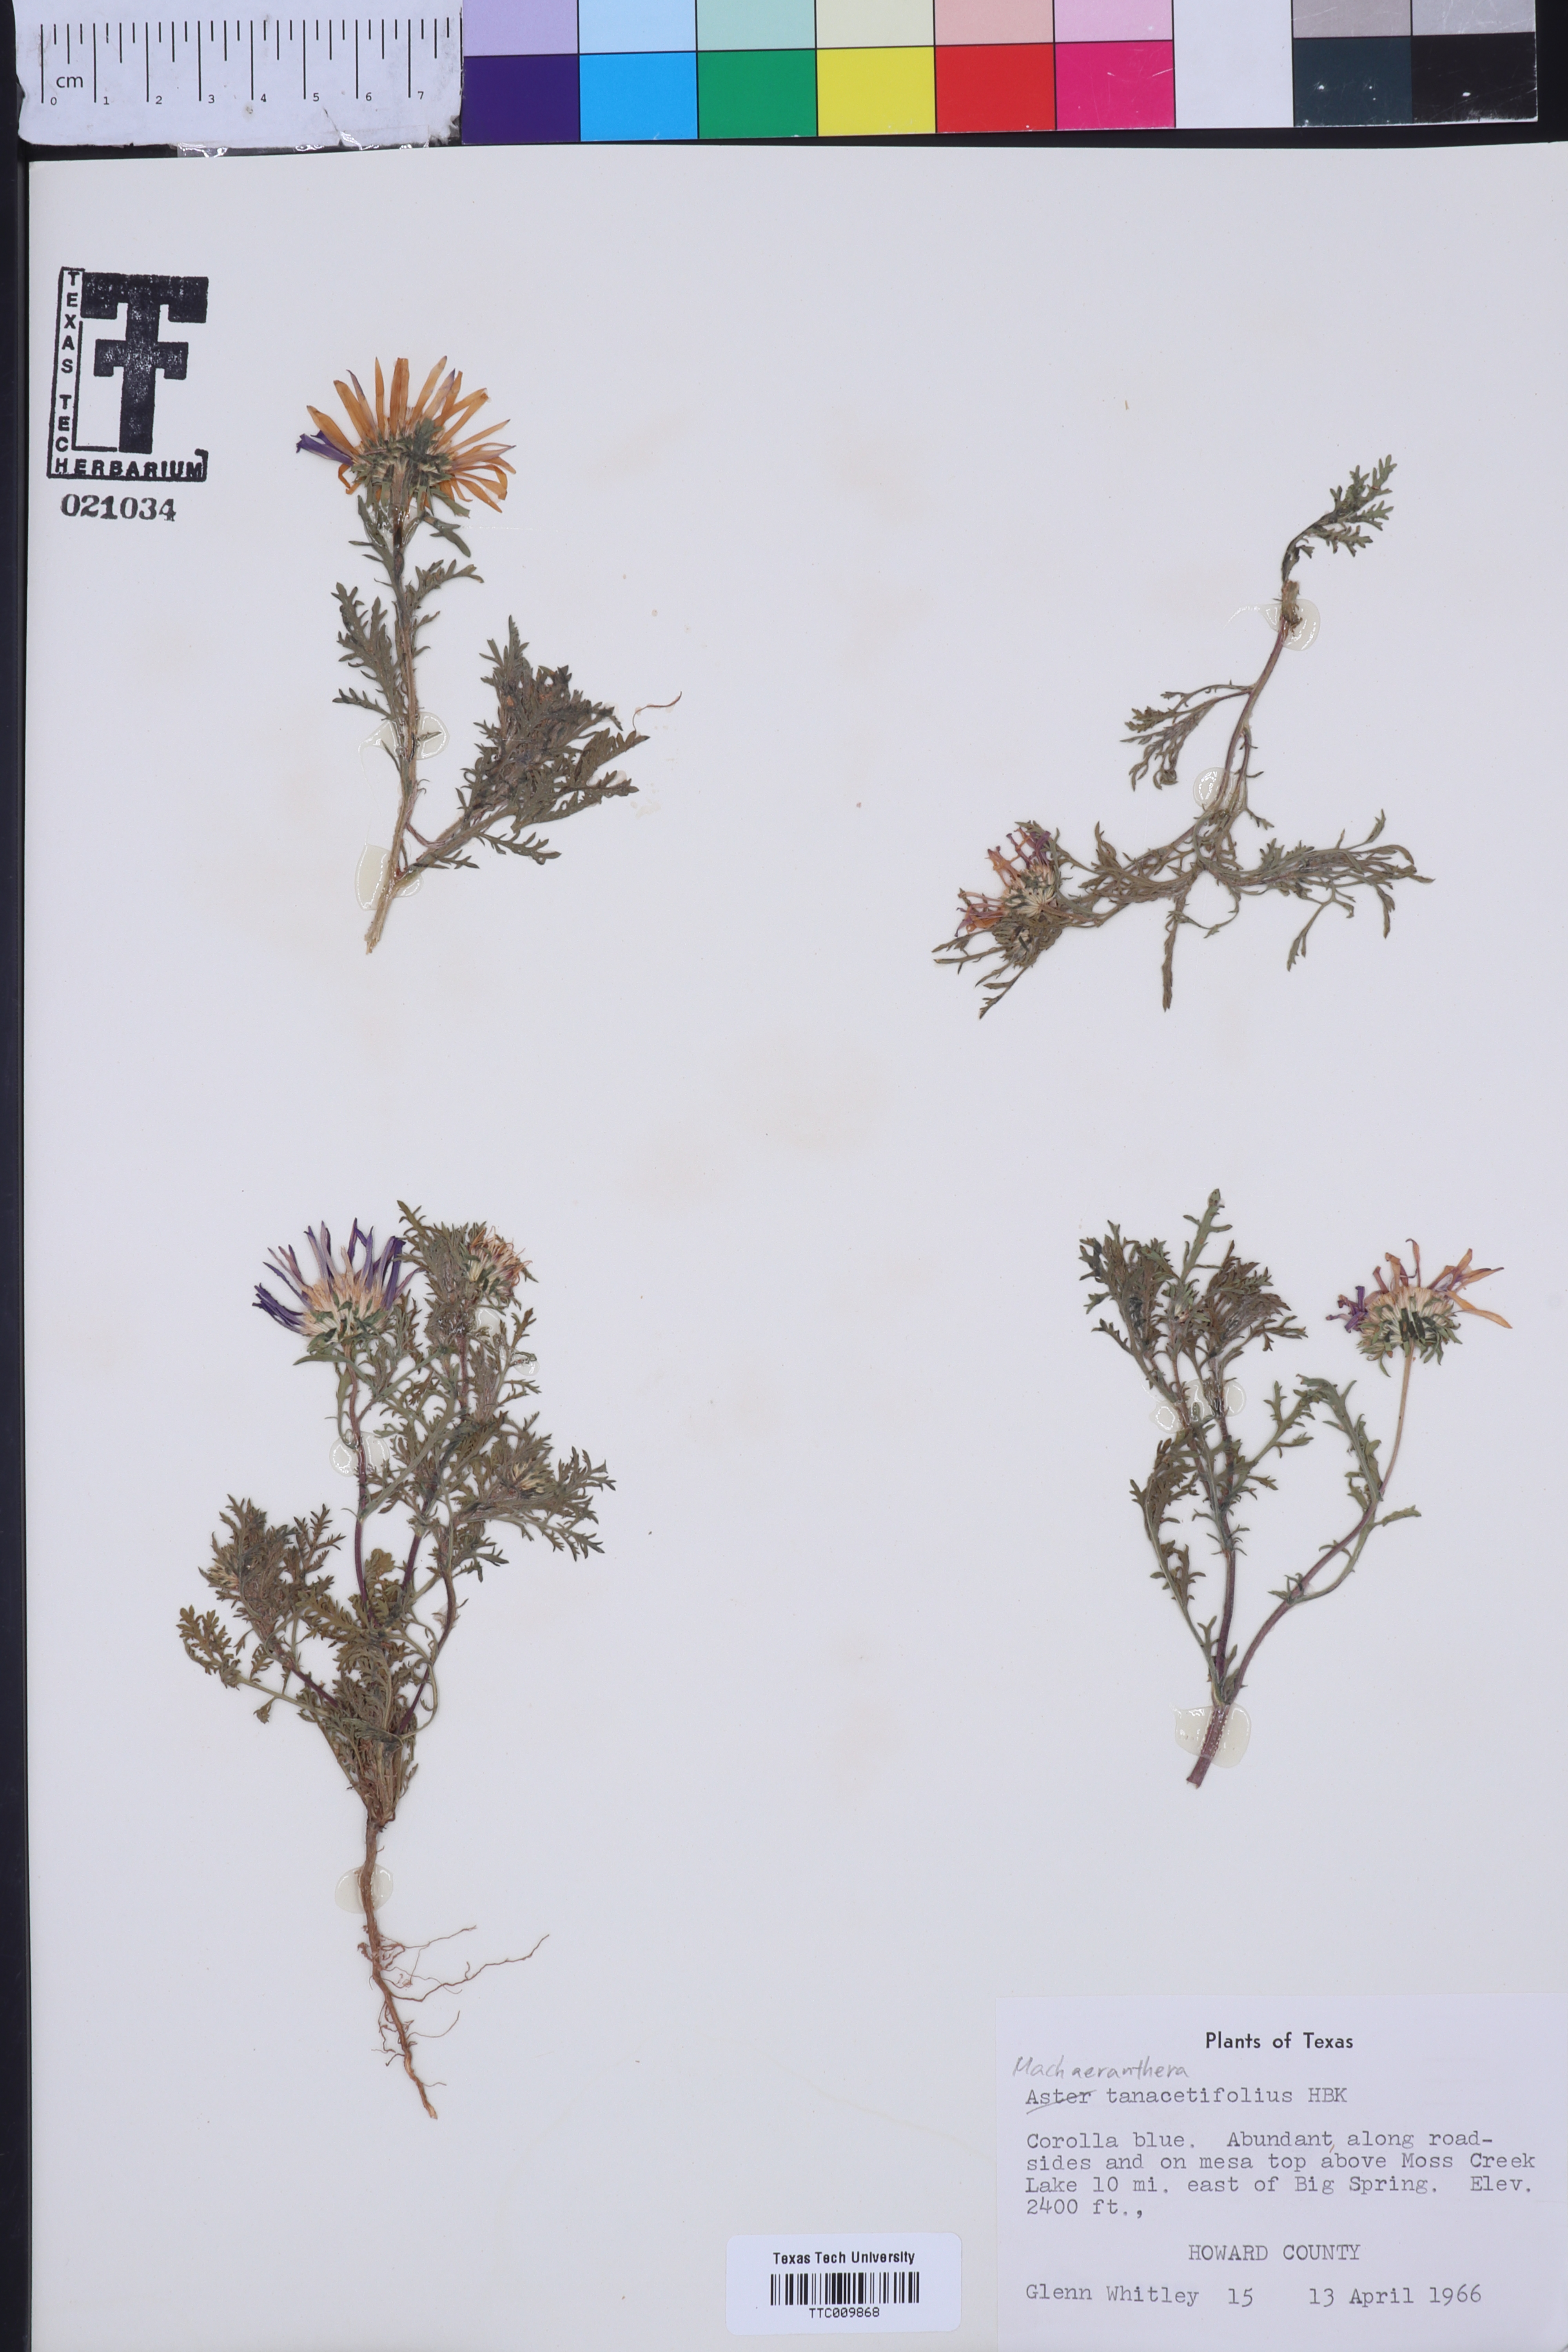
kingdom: Plantae
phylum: Tracheophyta
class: Magnoliopsida
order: Asterales
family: Asteraceae
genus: Machaeranthera
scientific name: Machaeranthera tanacetifolia
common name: Tansy-aster
